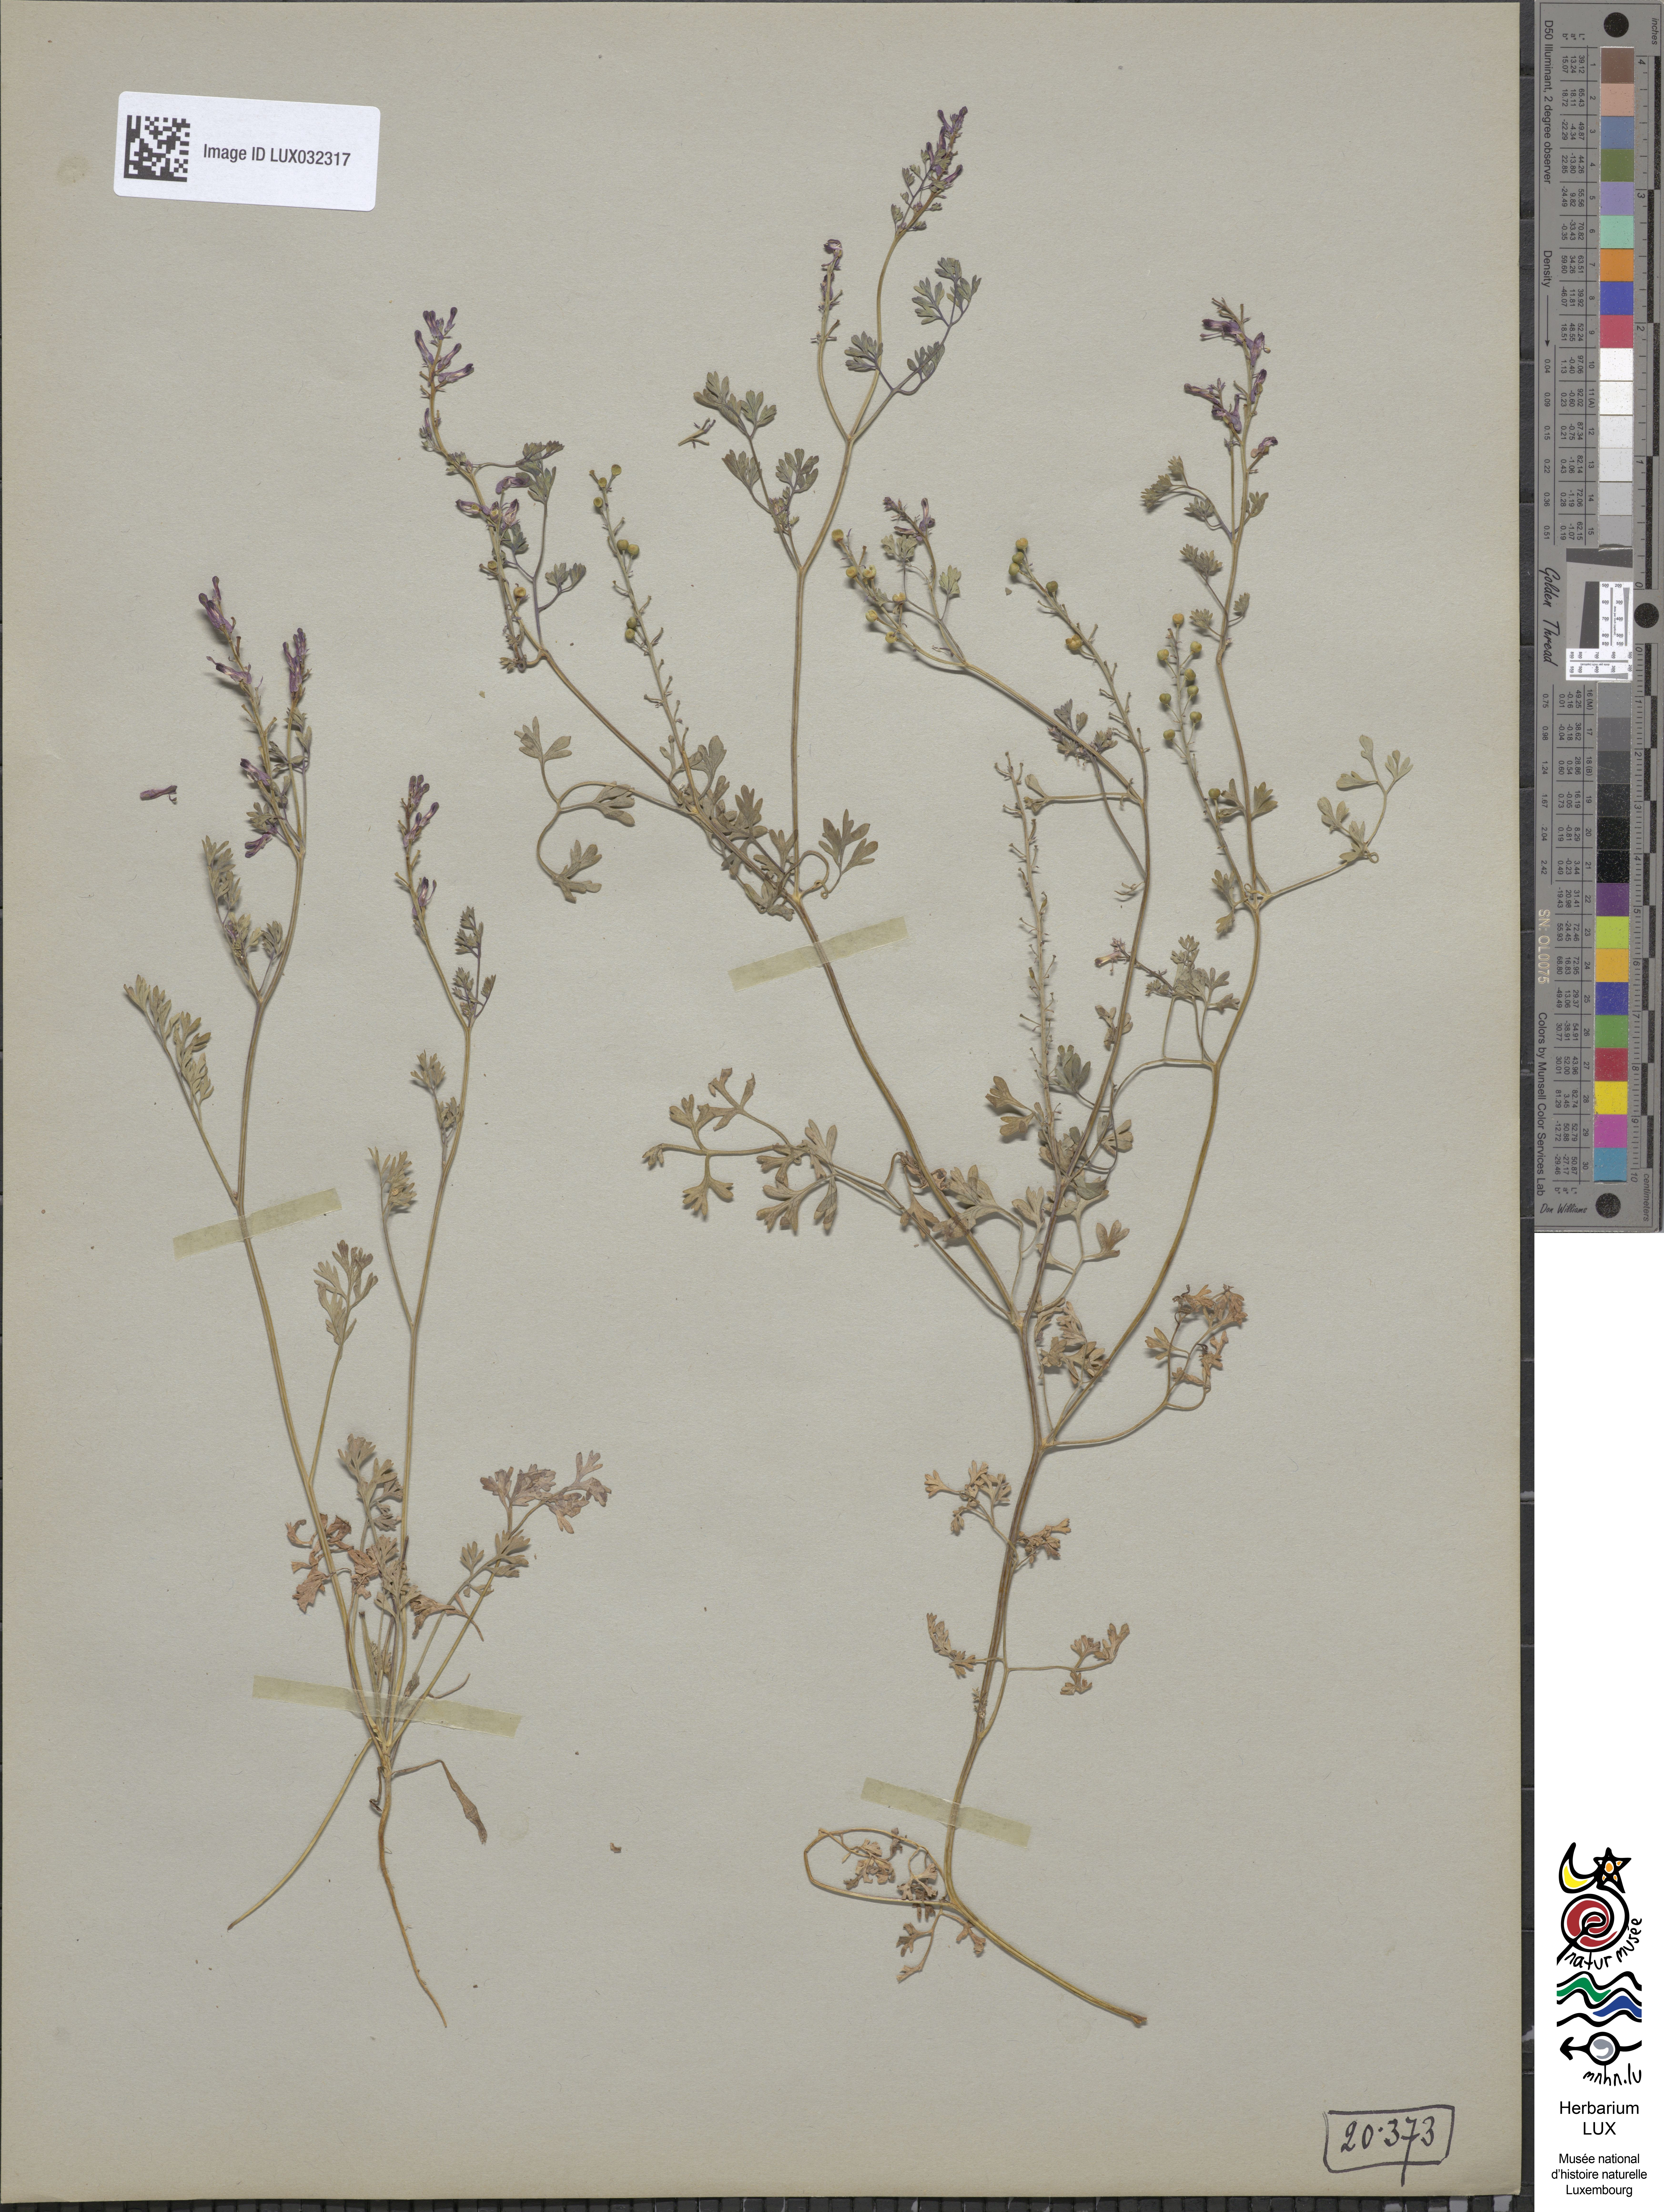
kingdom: Plantae
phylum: Tracheophyta
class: Magnoliopsida
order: Ranunculales
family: Papaveraceae
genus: Fumaria
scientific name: Fumaria officinalis
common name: Common fumitory
